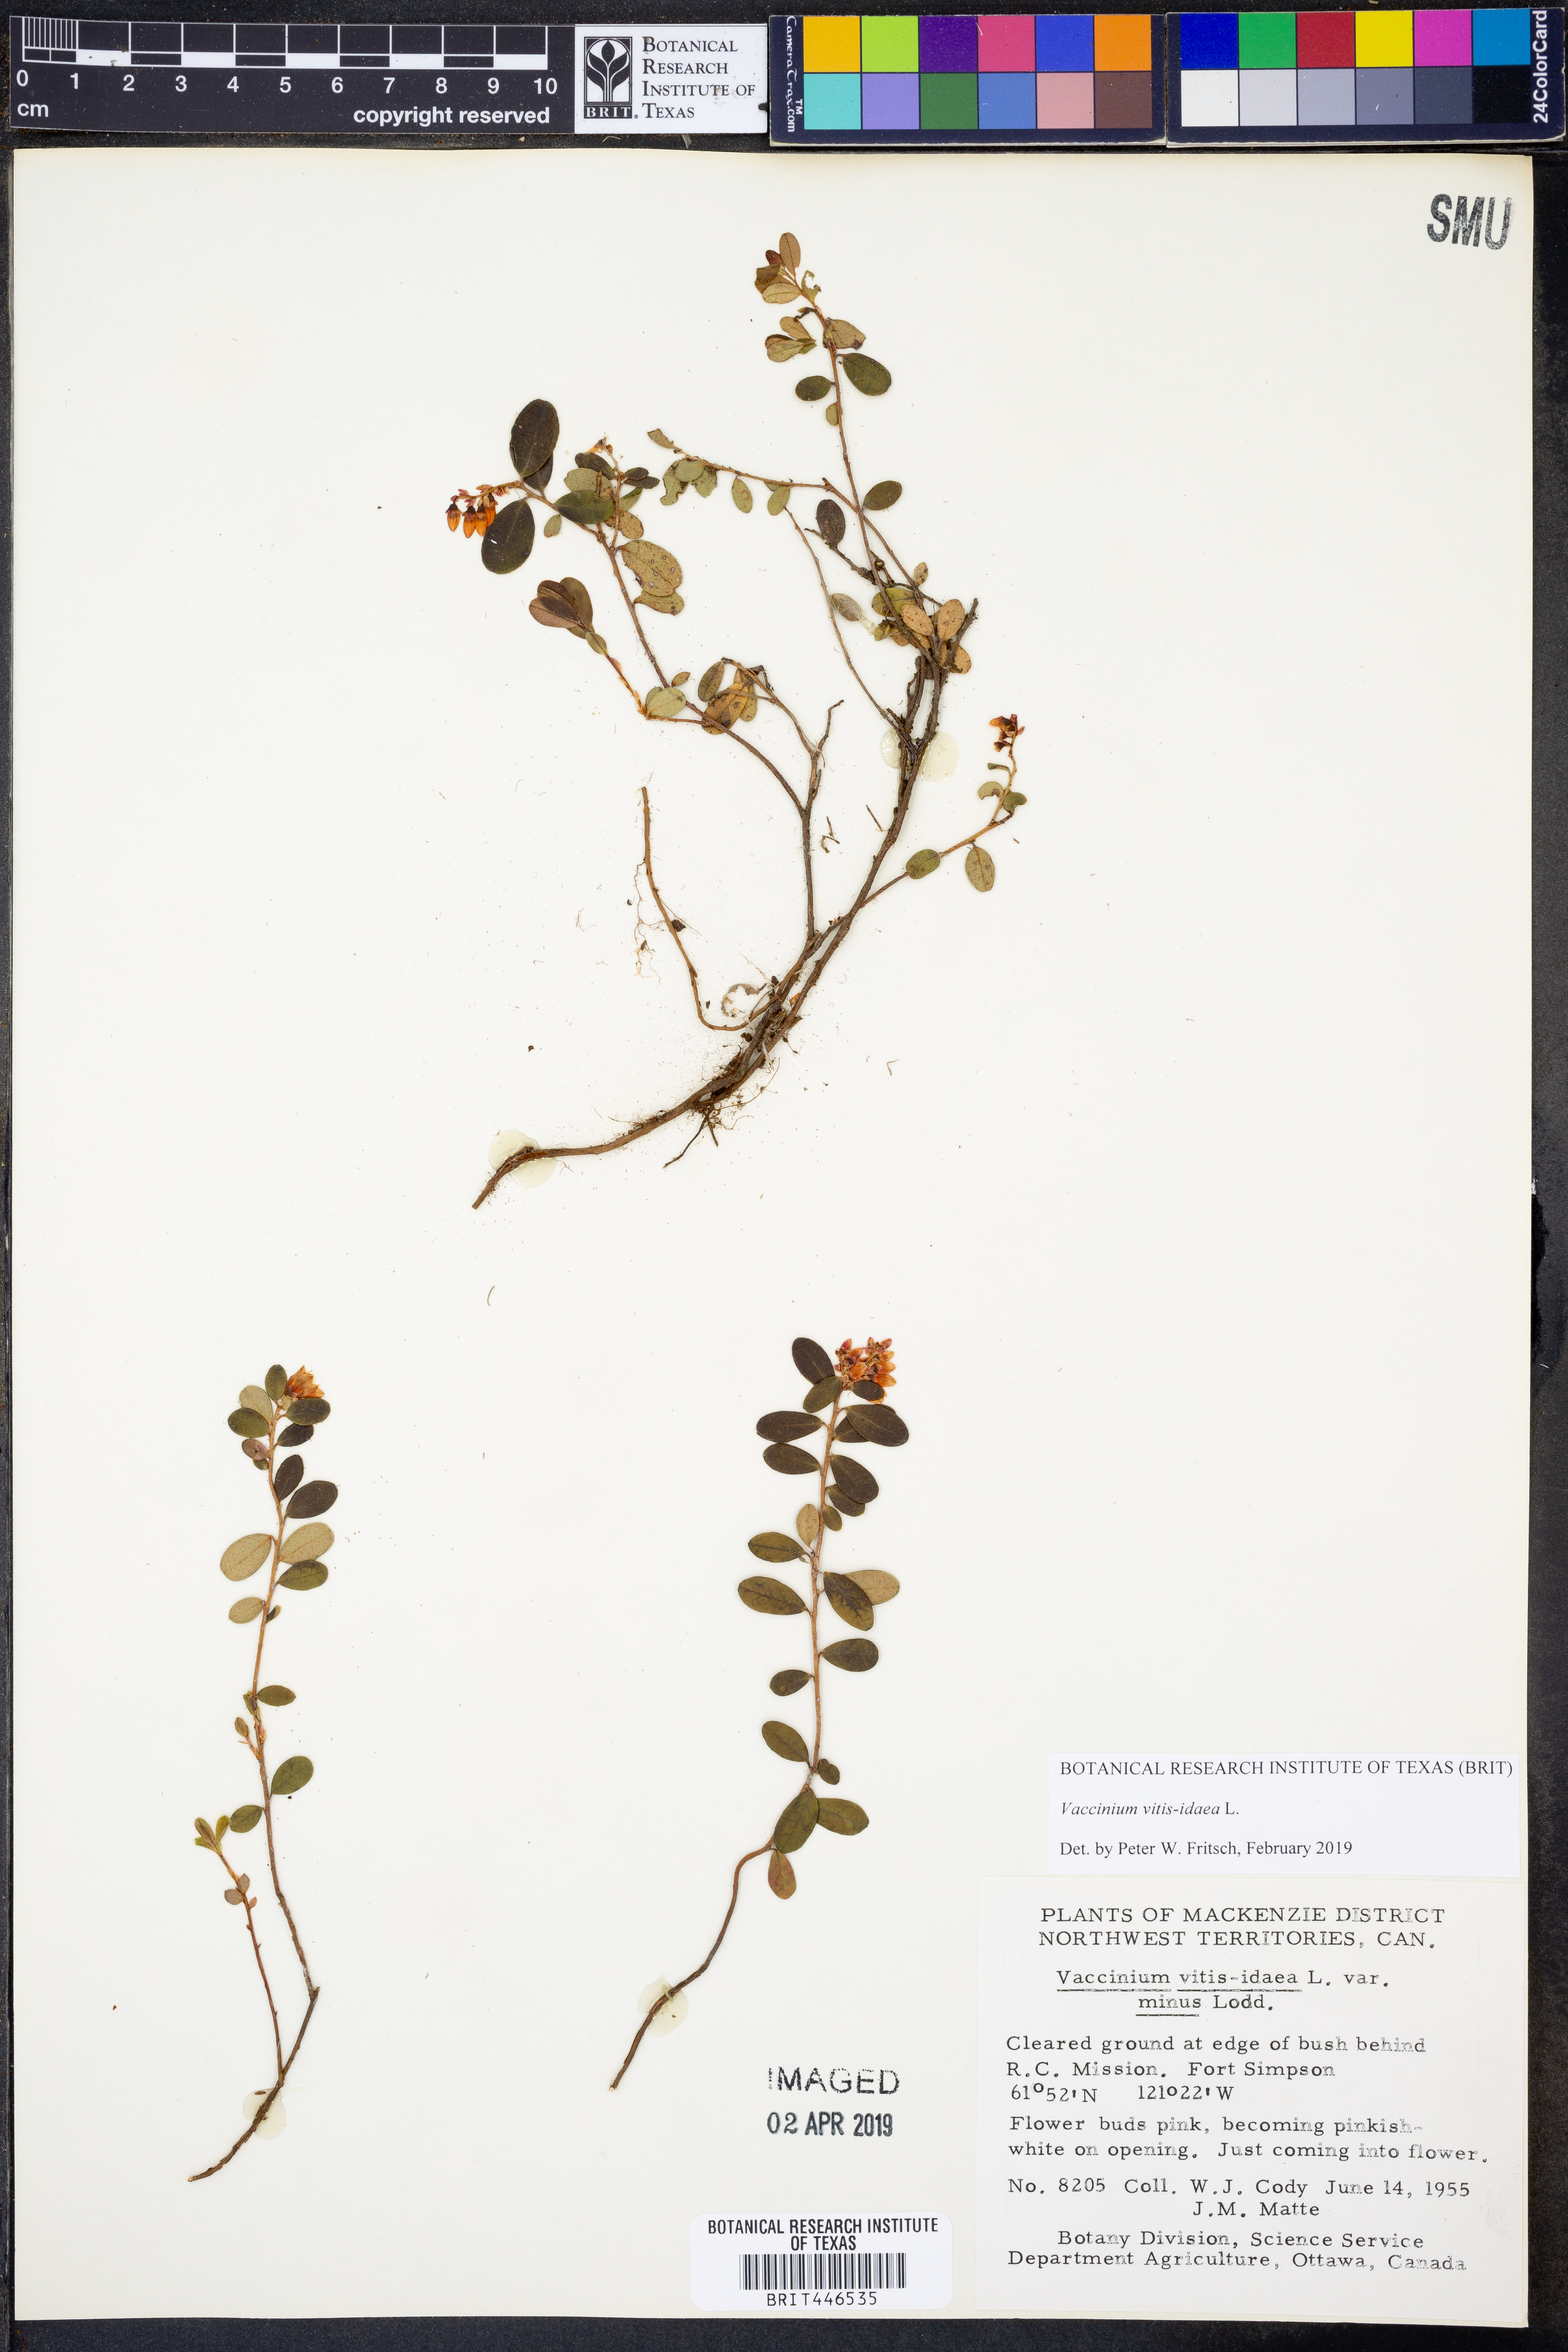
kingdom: Plantae
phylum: Tracheophyta
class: Magnoliopsida
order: Ericales
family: Ericaceae
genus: Vaccinium
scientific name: Vaccinium vitis-idaea
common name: Cowberry
